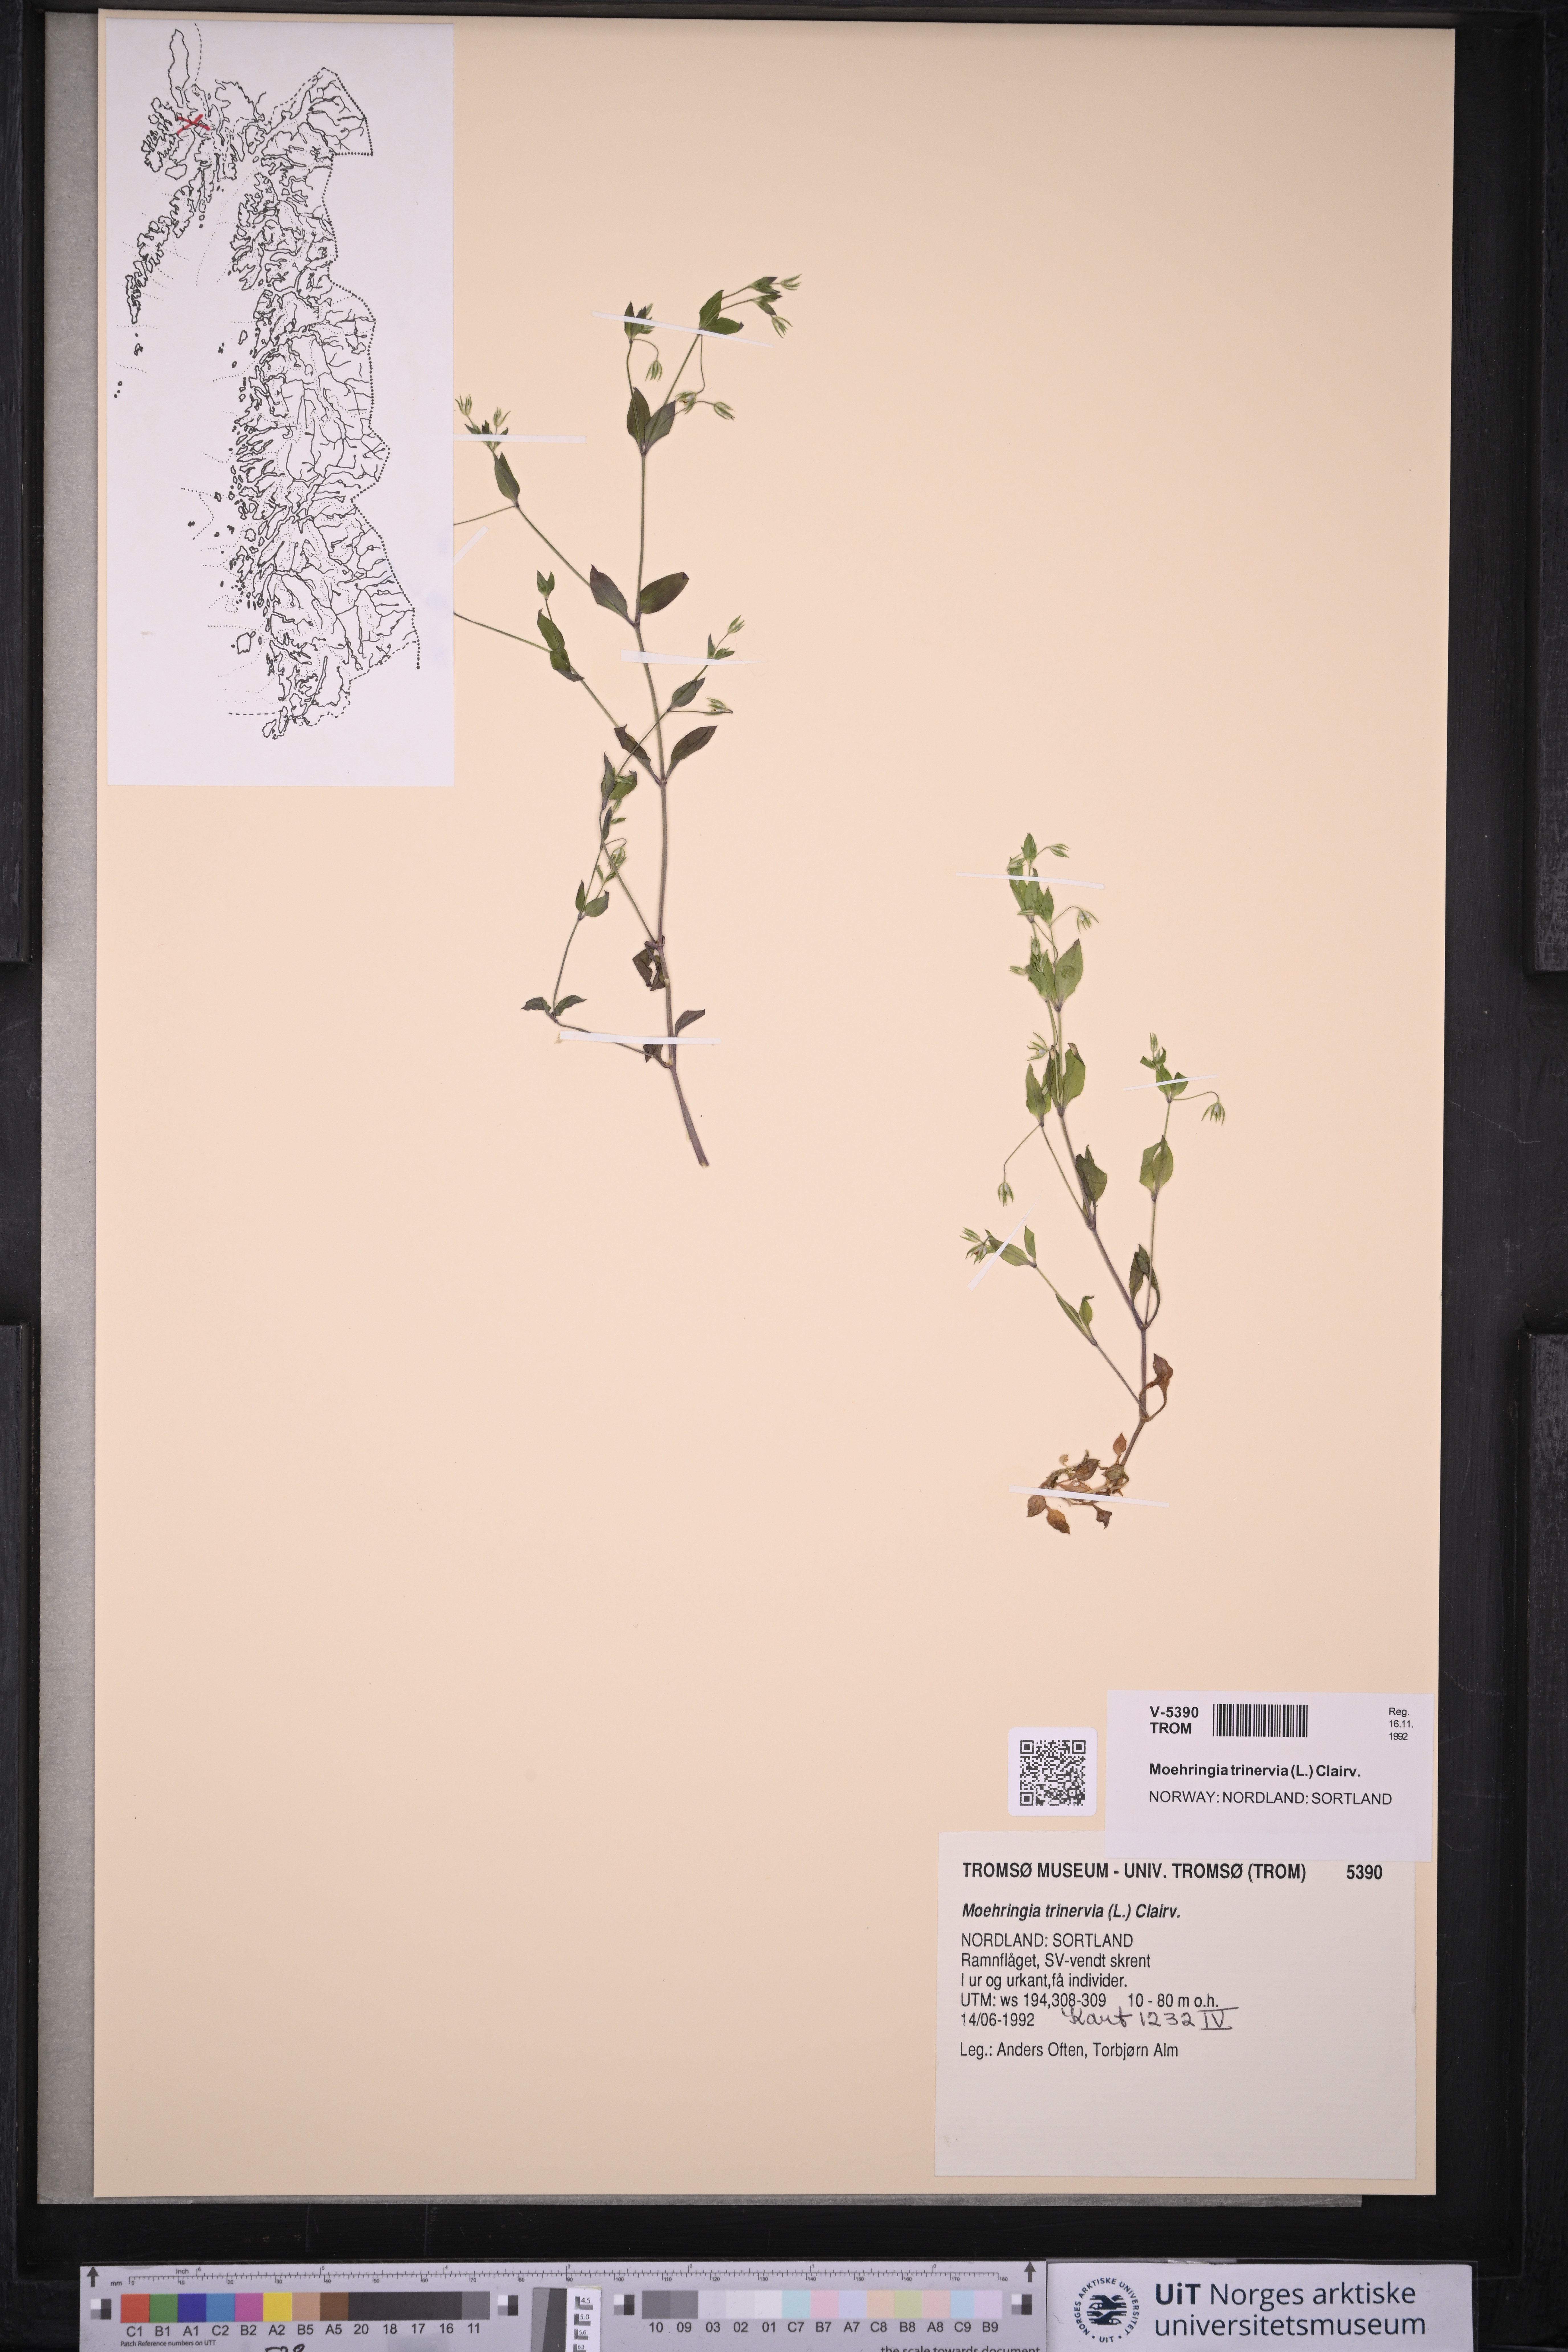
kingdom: Plantae
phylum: Tracheophyta
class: Magnoliopsida
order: Caryophyllales
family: Caryophyllaceae
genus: Moehringia
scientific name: Moehringia trinervia
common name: Three-nerved sandwort
